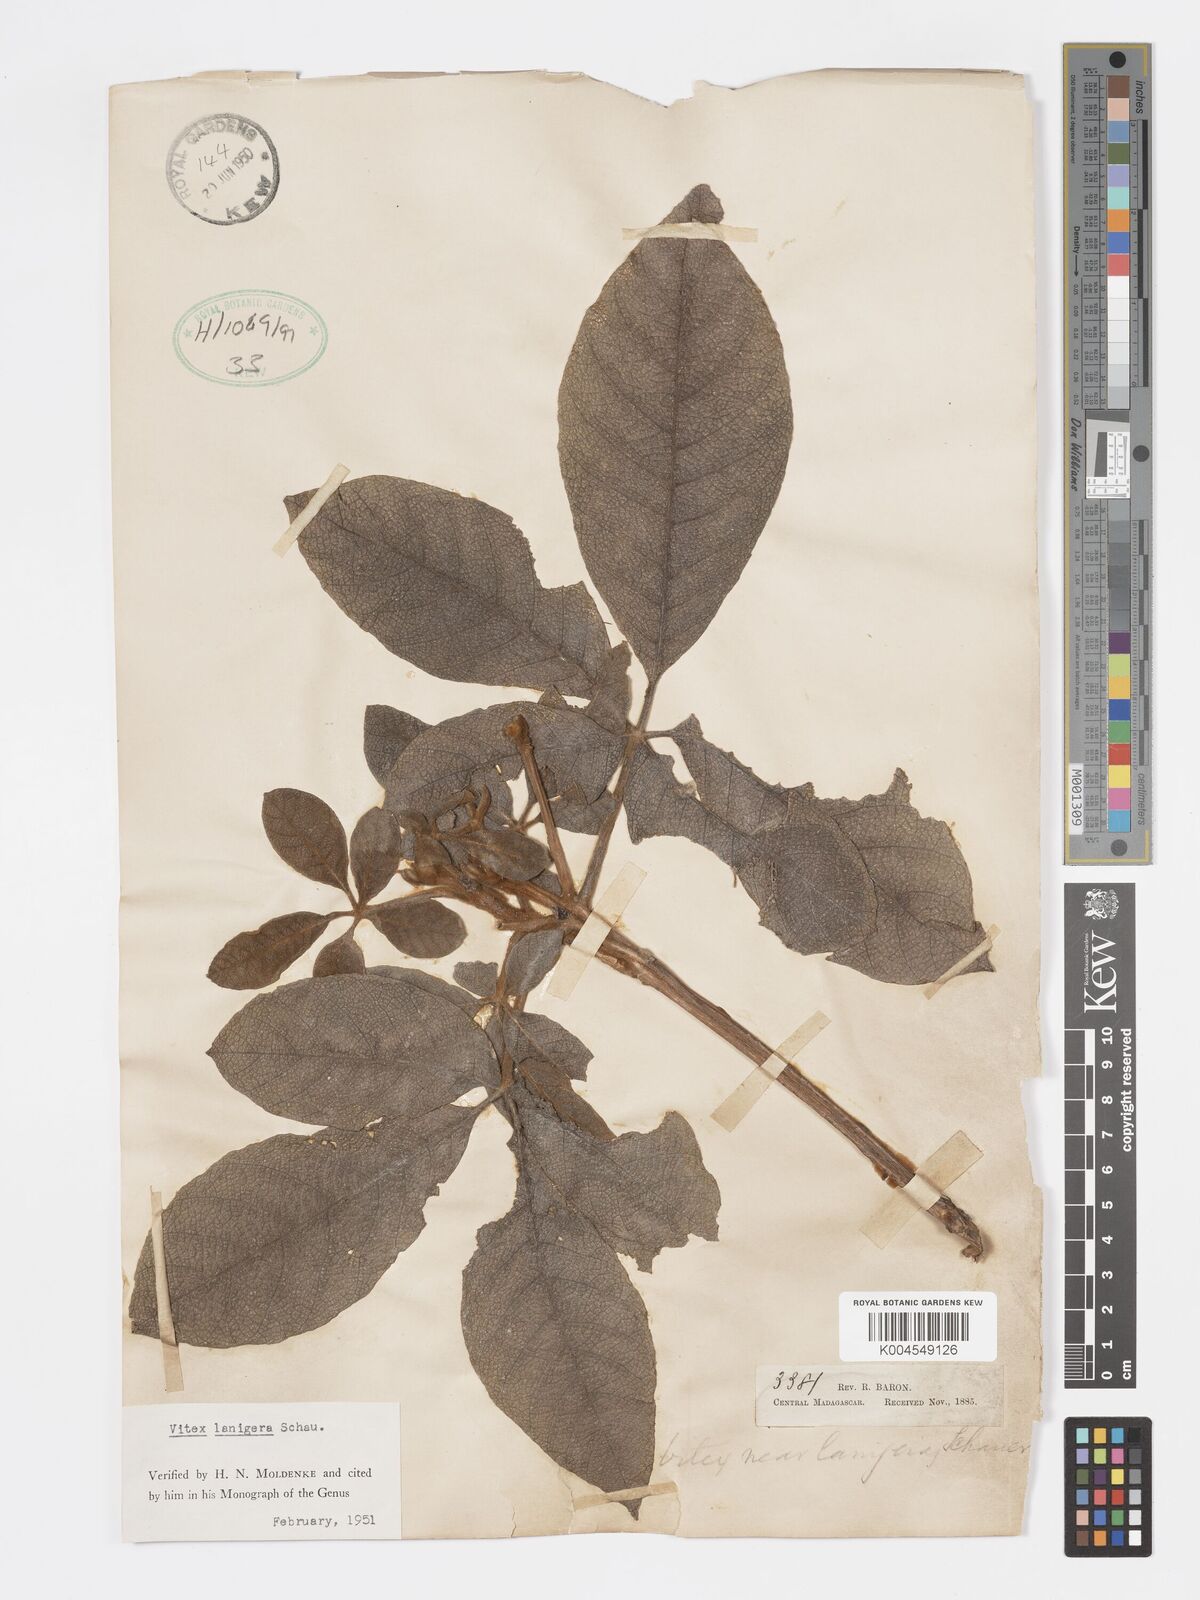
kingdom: Plantae
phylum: Tracheophyta
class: Magnoliopsida
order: Lamiales
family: Lamiaceae
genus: Vitex
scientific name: Vitex lanigera
